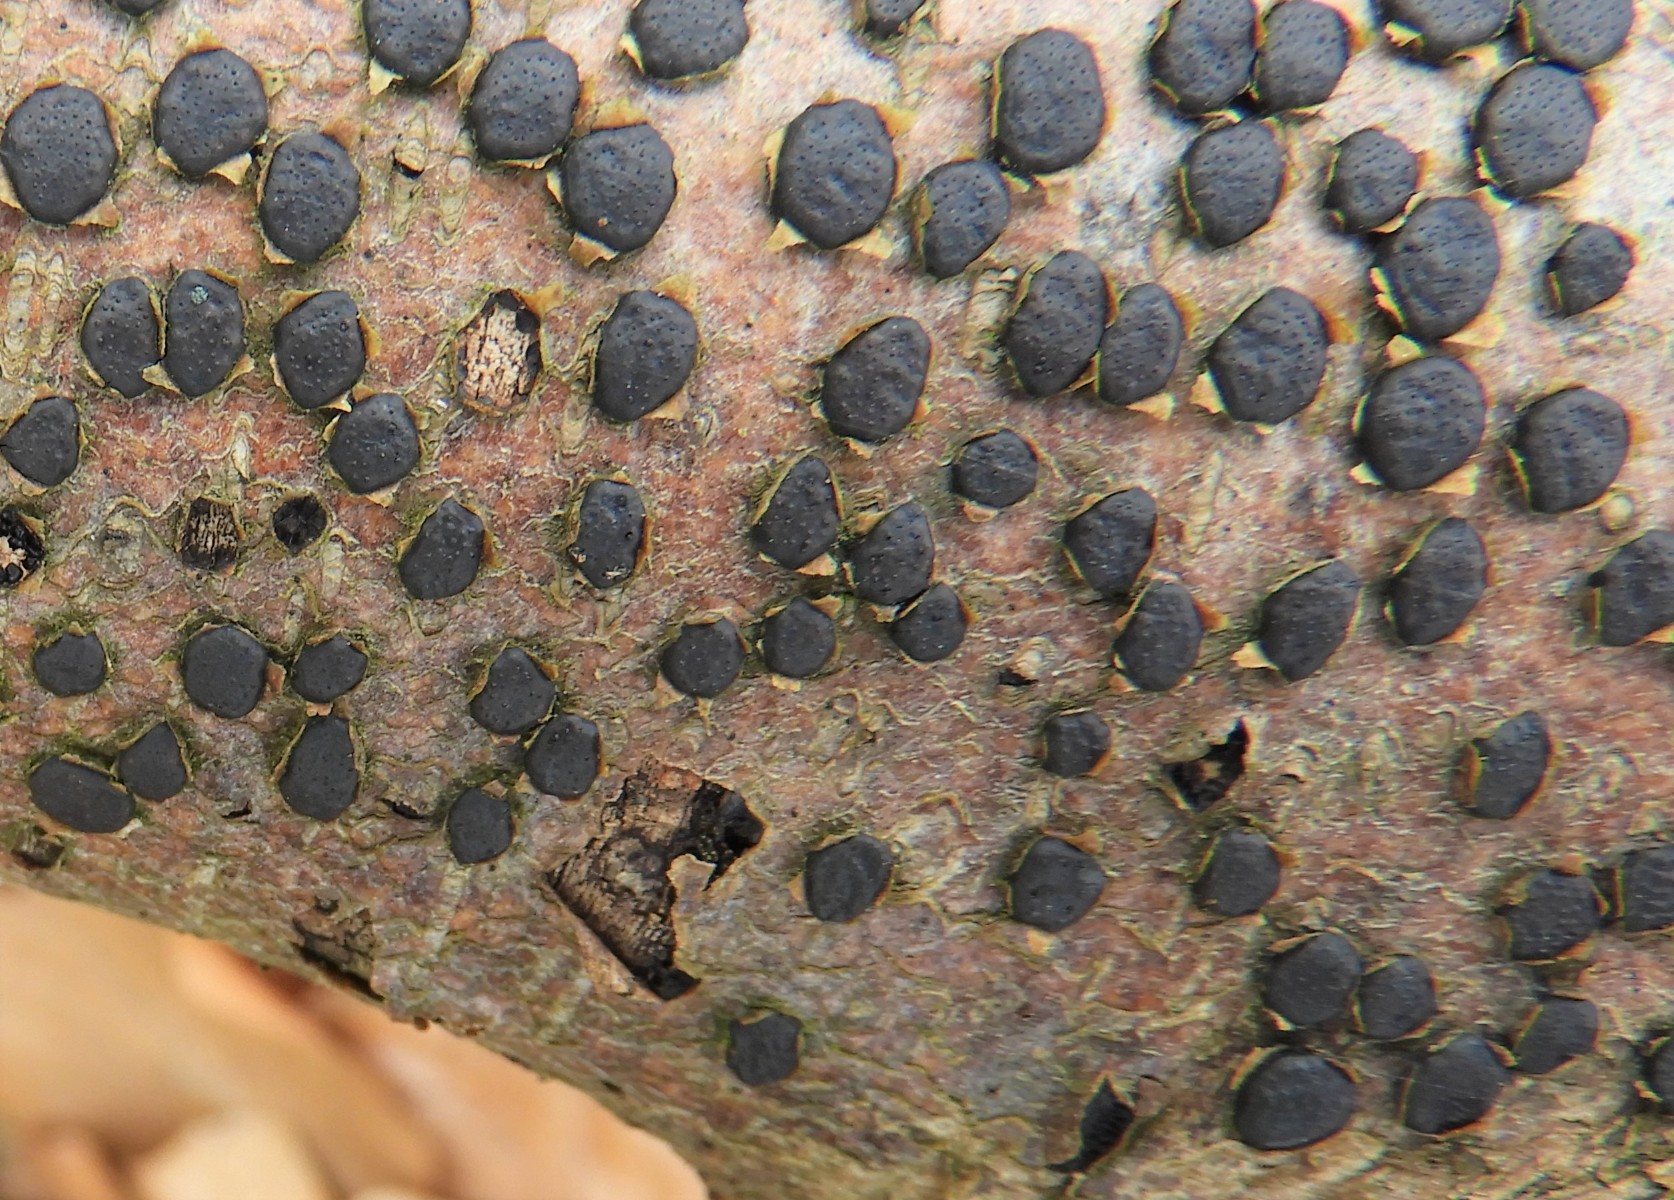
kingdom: Fungi
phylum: Ascomycota
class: Sordariomycetes
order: Xylariales
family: Diatrypaceae
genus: Diatrype
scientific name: Diatrype disciformis
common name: kant-kulskorpe
